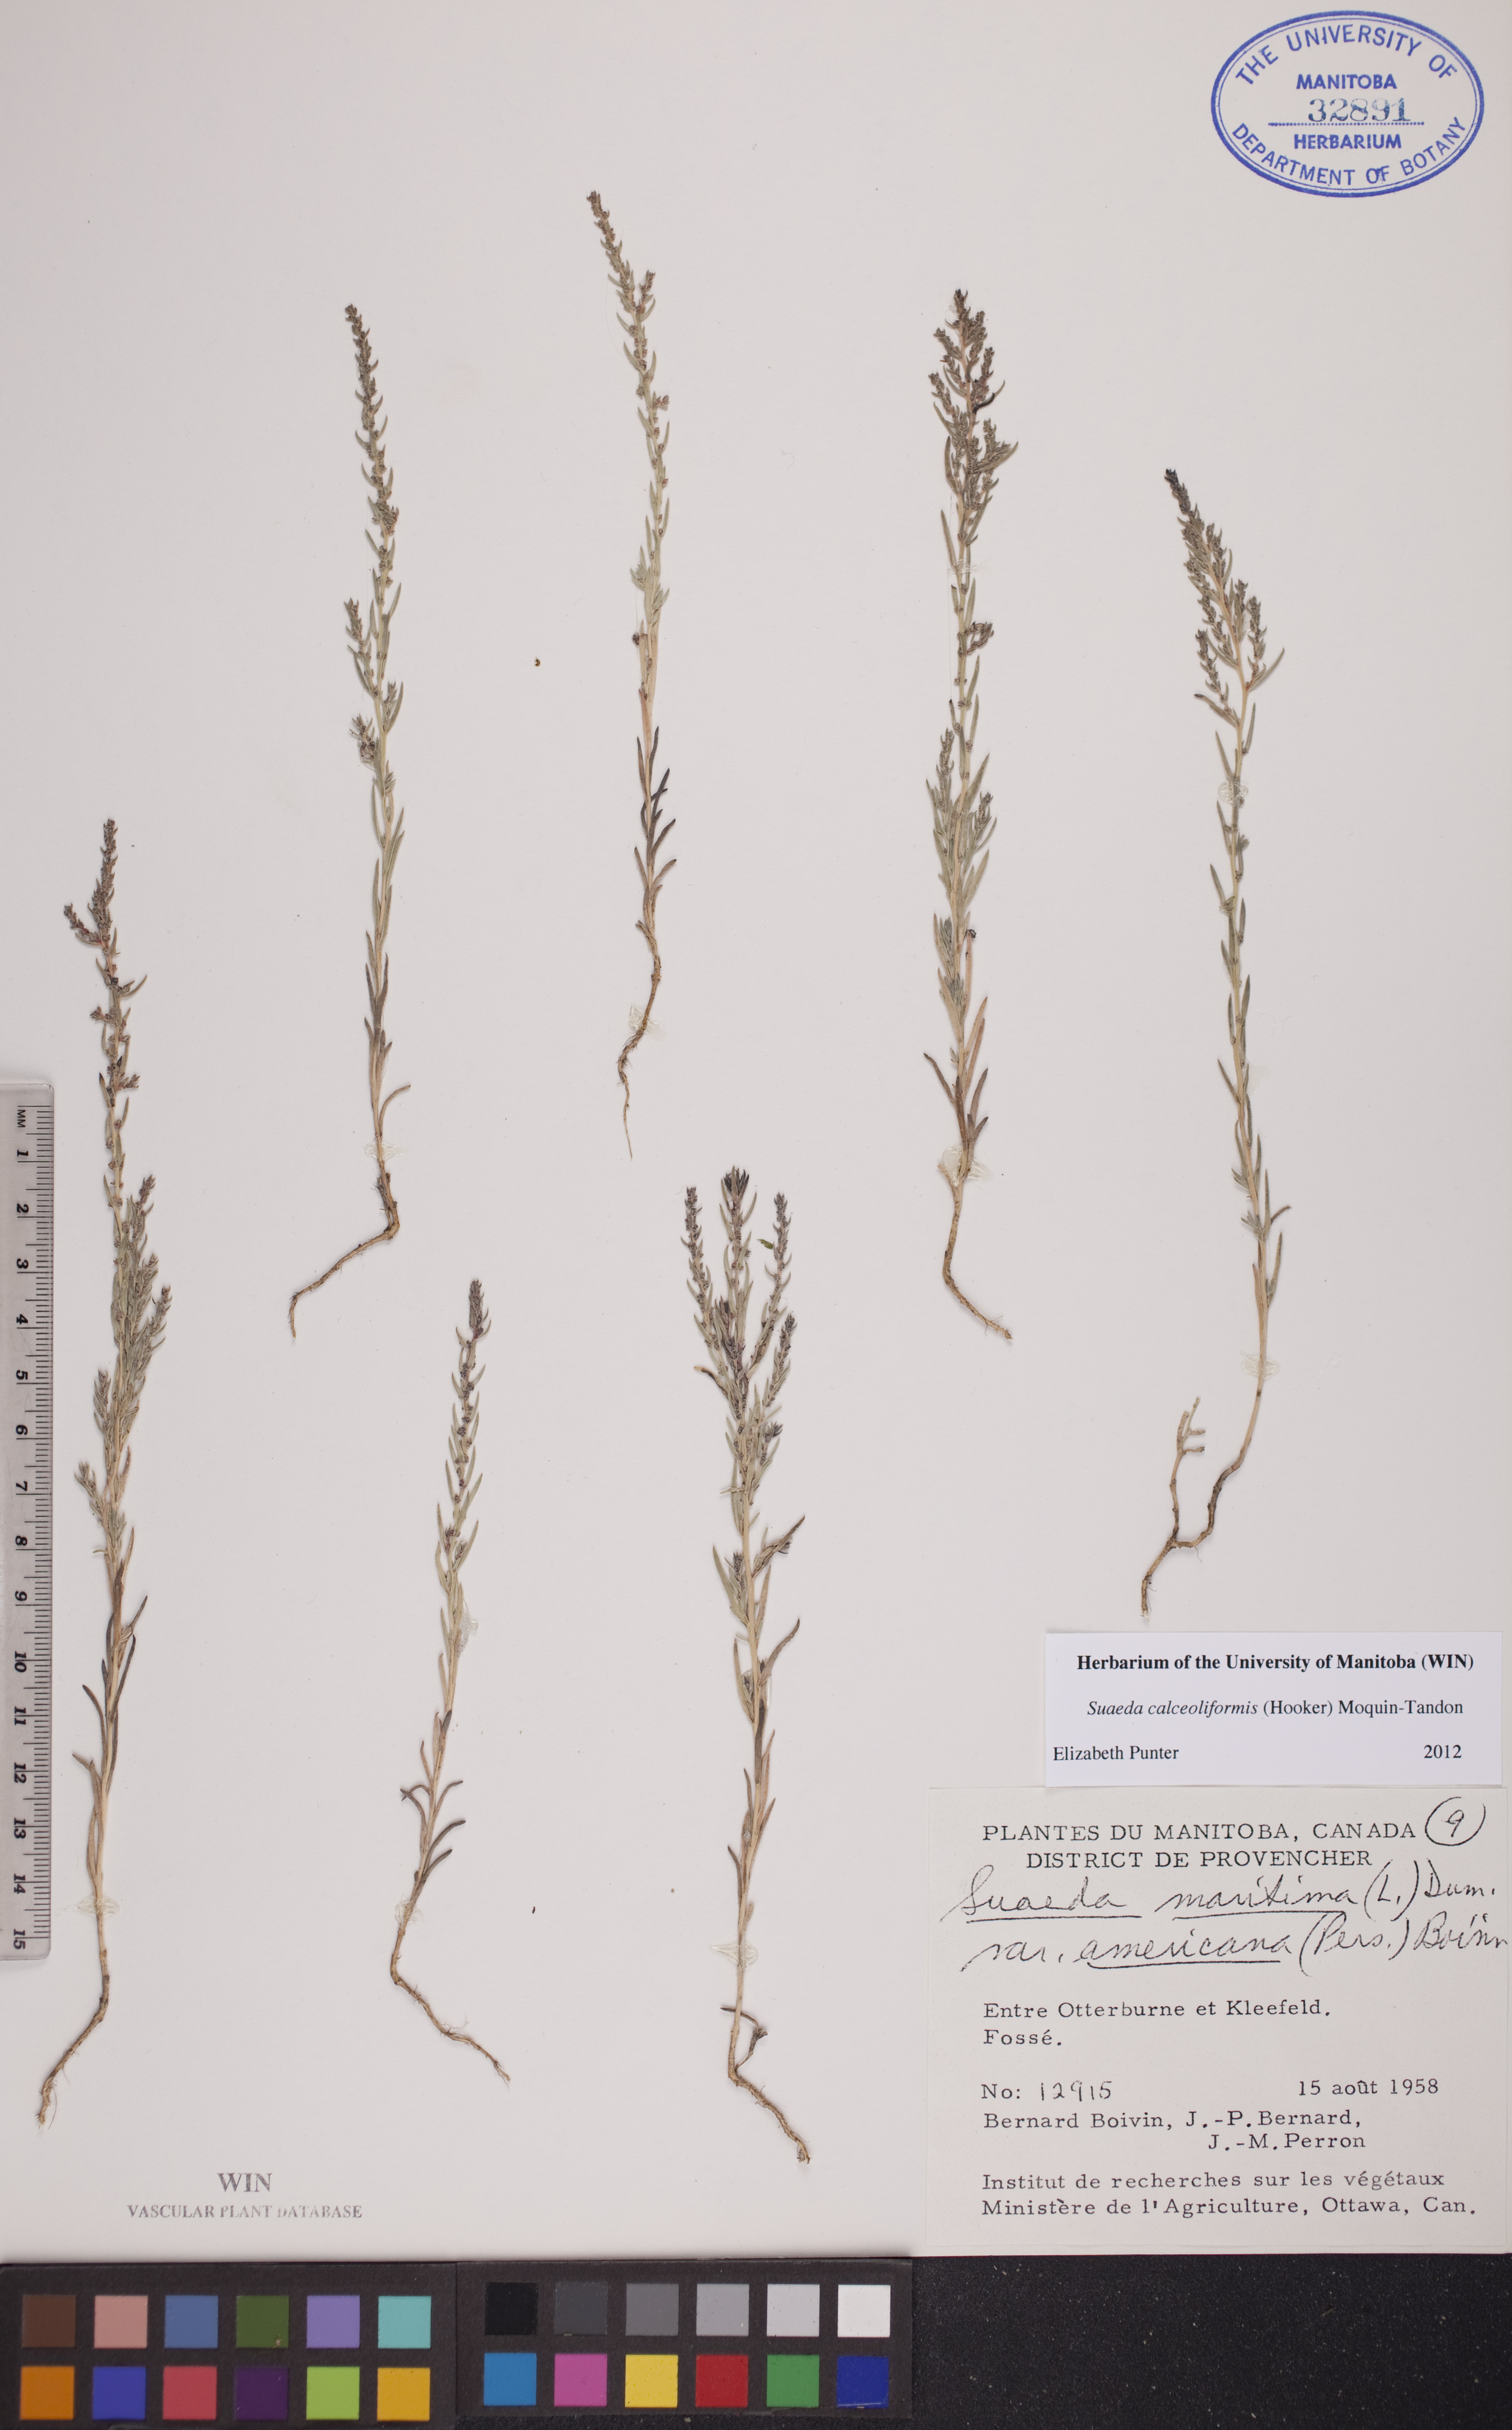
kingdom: Plantae
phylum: Tracheophyta
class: Magnoliopsida
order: Caryophyllales
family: Amaranthaceae
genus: Suaeda
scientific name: Suaeda calceoliformis
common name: Pursh's seepweed
